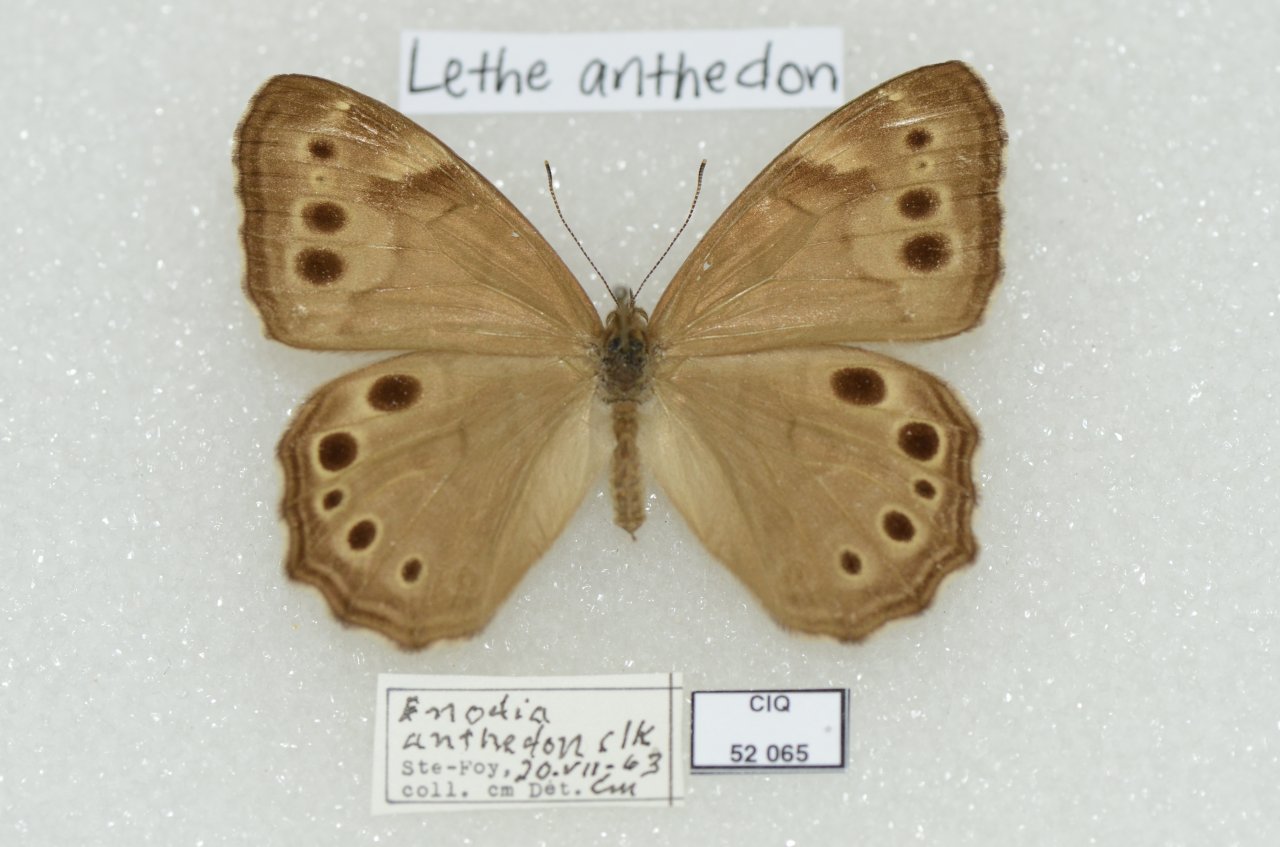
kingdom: Animalia
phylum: Arthropoda
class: Insecta
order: Lepidoptera
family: Nymphalidae
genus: Lethe
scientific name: Lethe anthedon
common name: Northern Pearly-Eye
